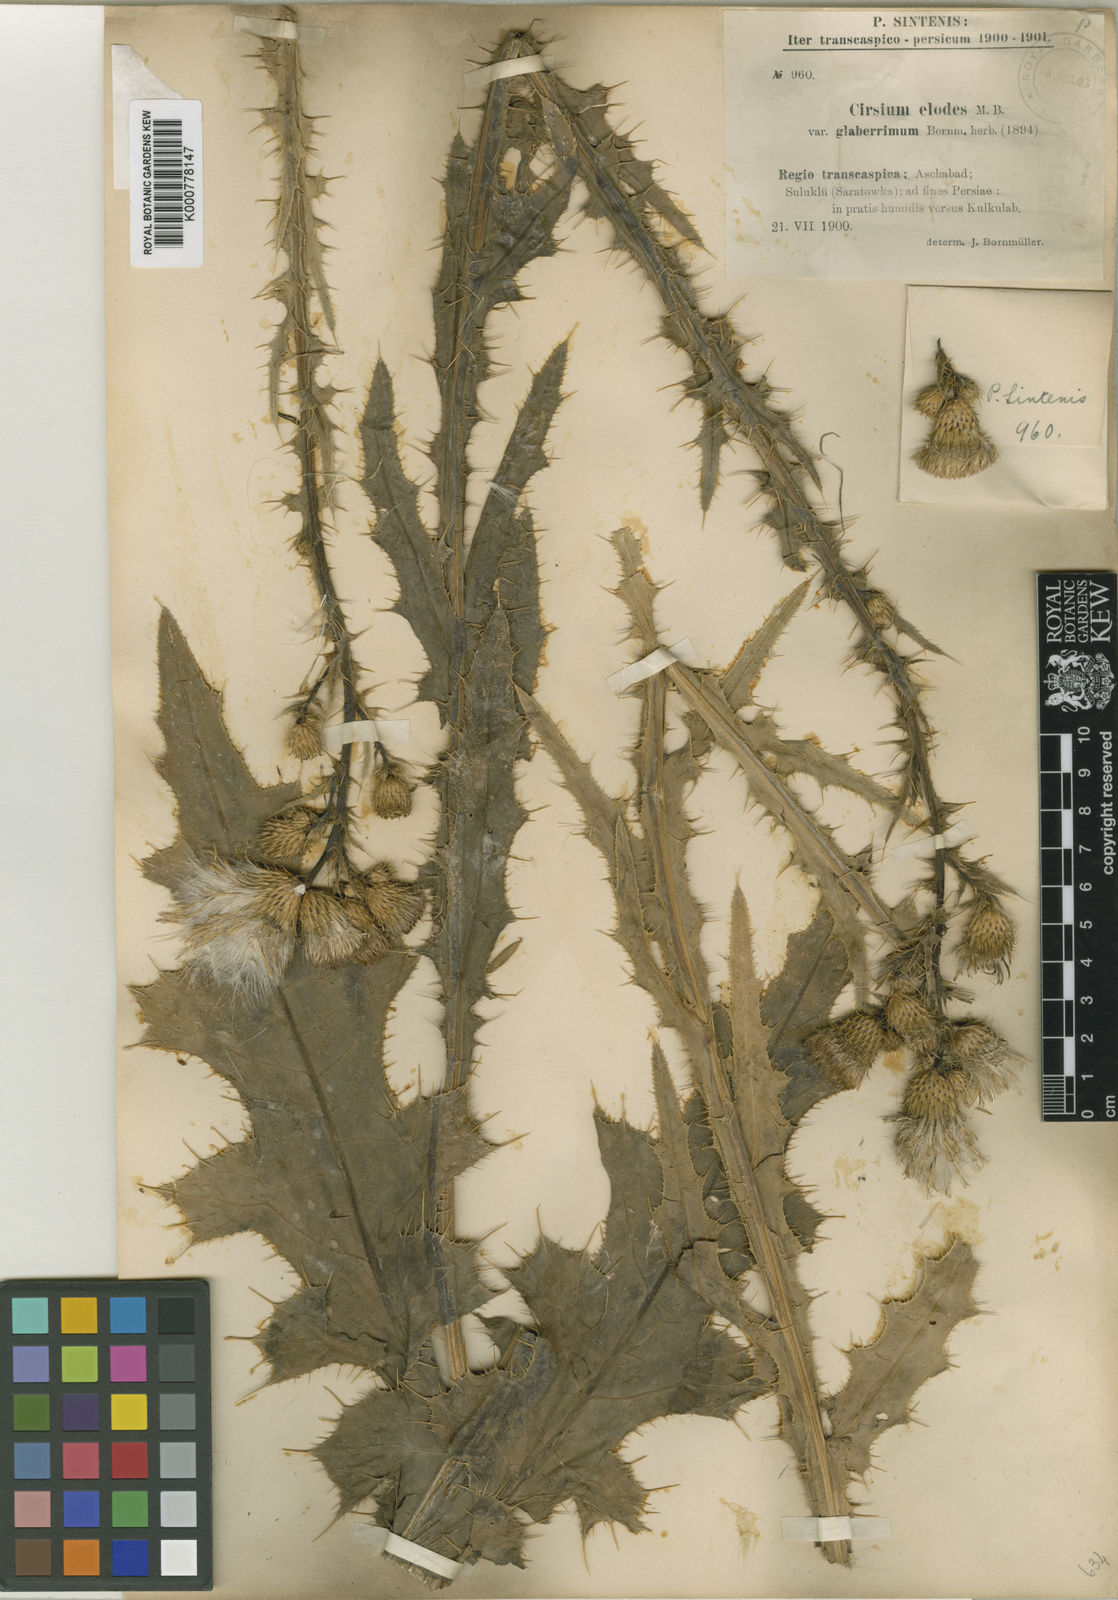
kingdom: Plantae
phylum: Tracheophyta
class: Magnoliopsida
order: Asterales
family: Asteraceae
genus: Cirsium
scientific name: Cirsium
